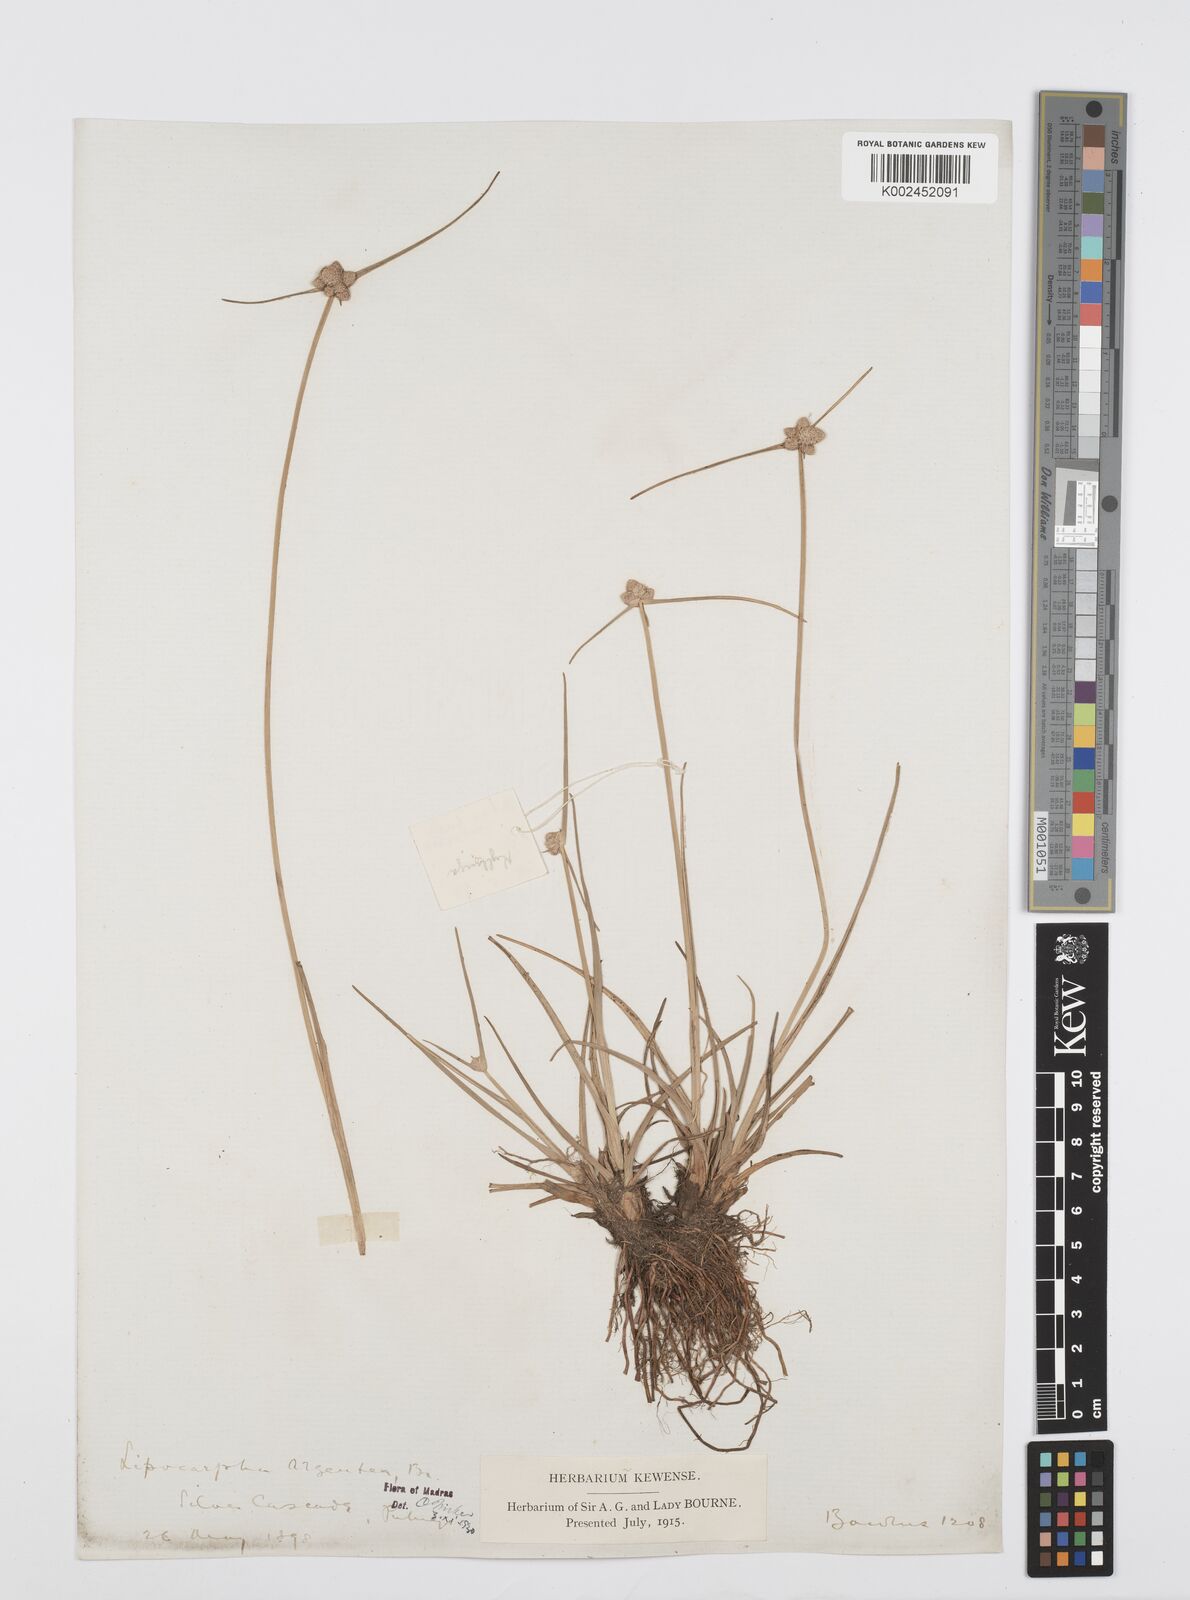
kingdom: Plantae
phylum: Tracheophyta
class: Liliopsida
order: Poales
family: Cyperaceae
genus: Cyperus
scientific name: Cyperus
